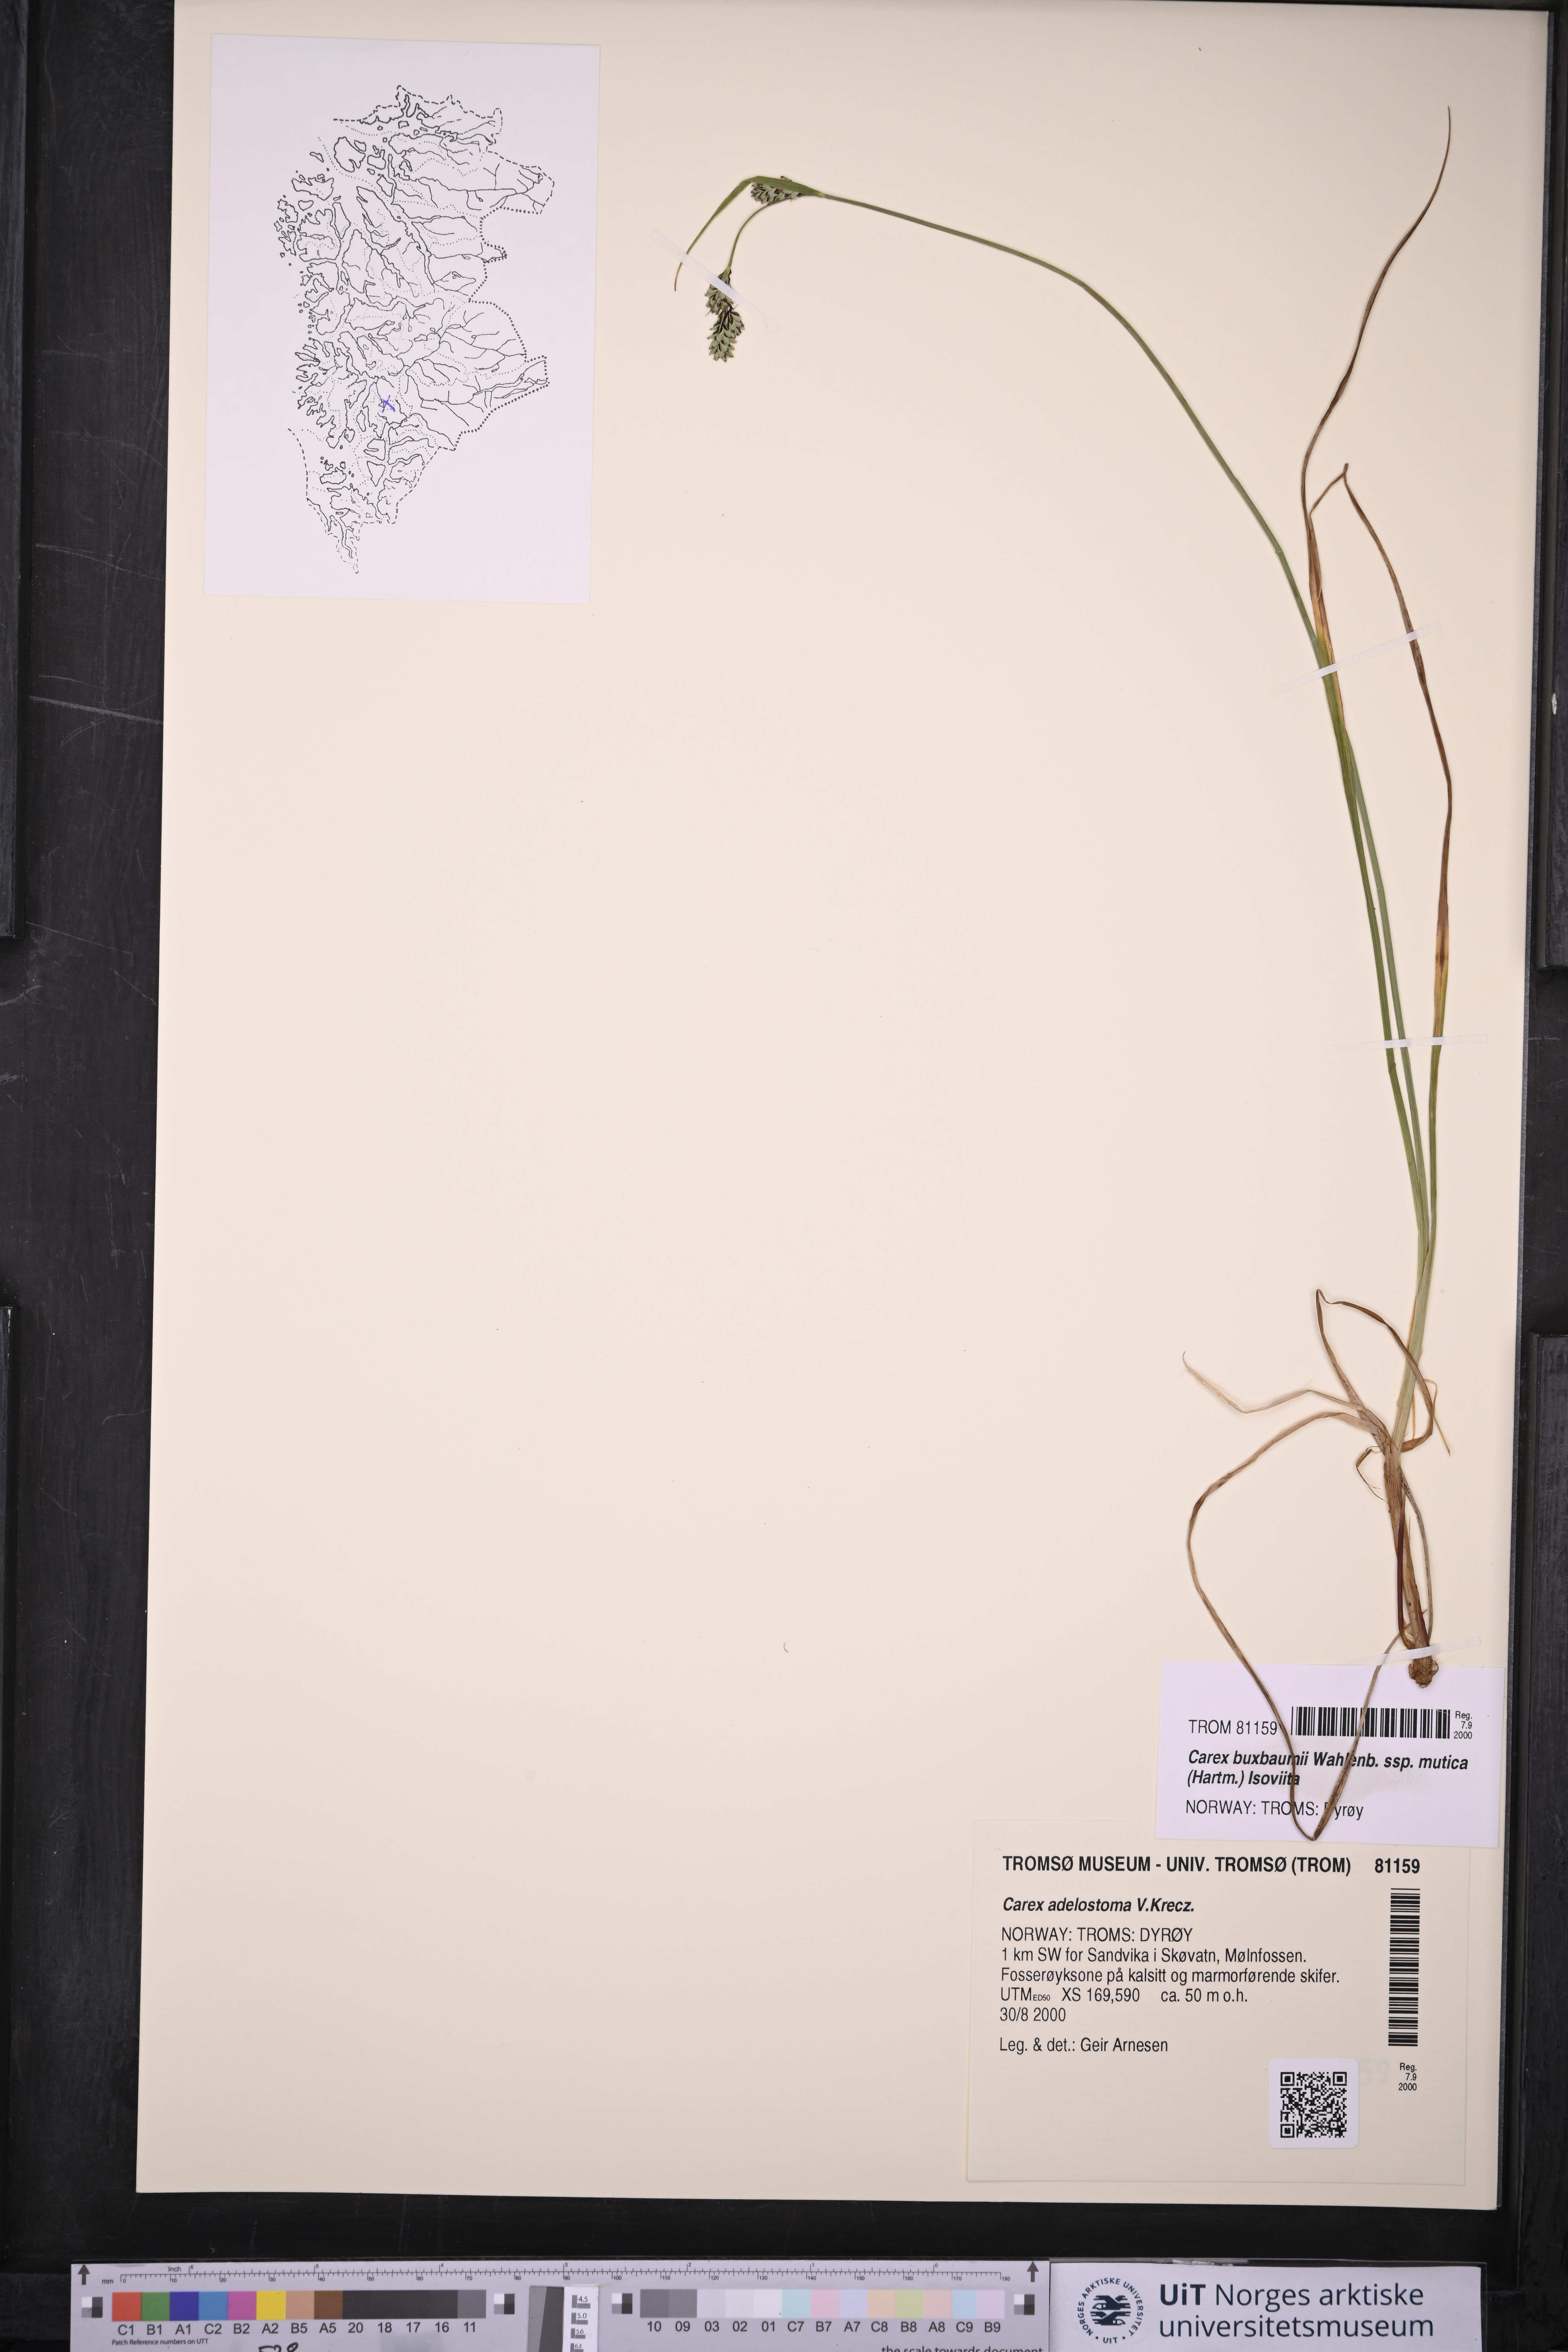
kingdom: Plantae
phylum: Tracheophyta
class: Liliopsida
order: Poales
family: Cyperaceae
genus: Carex
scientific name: Carex adelostoma
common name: Circumpolar sedge
